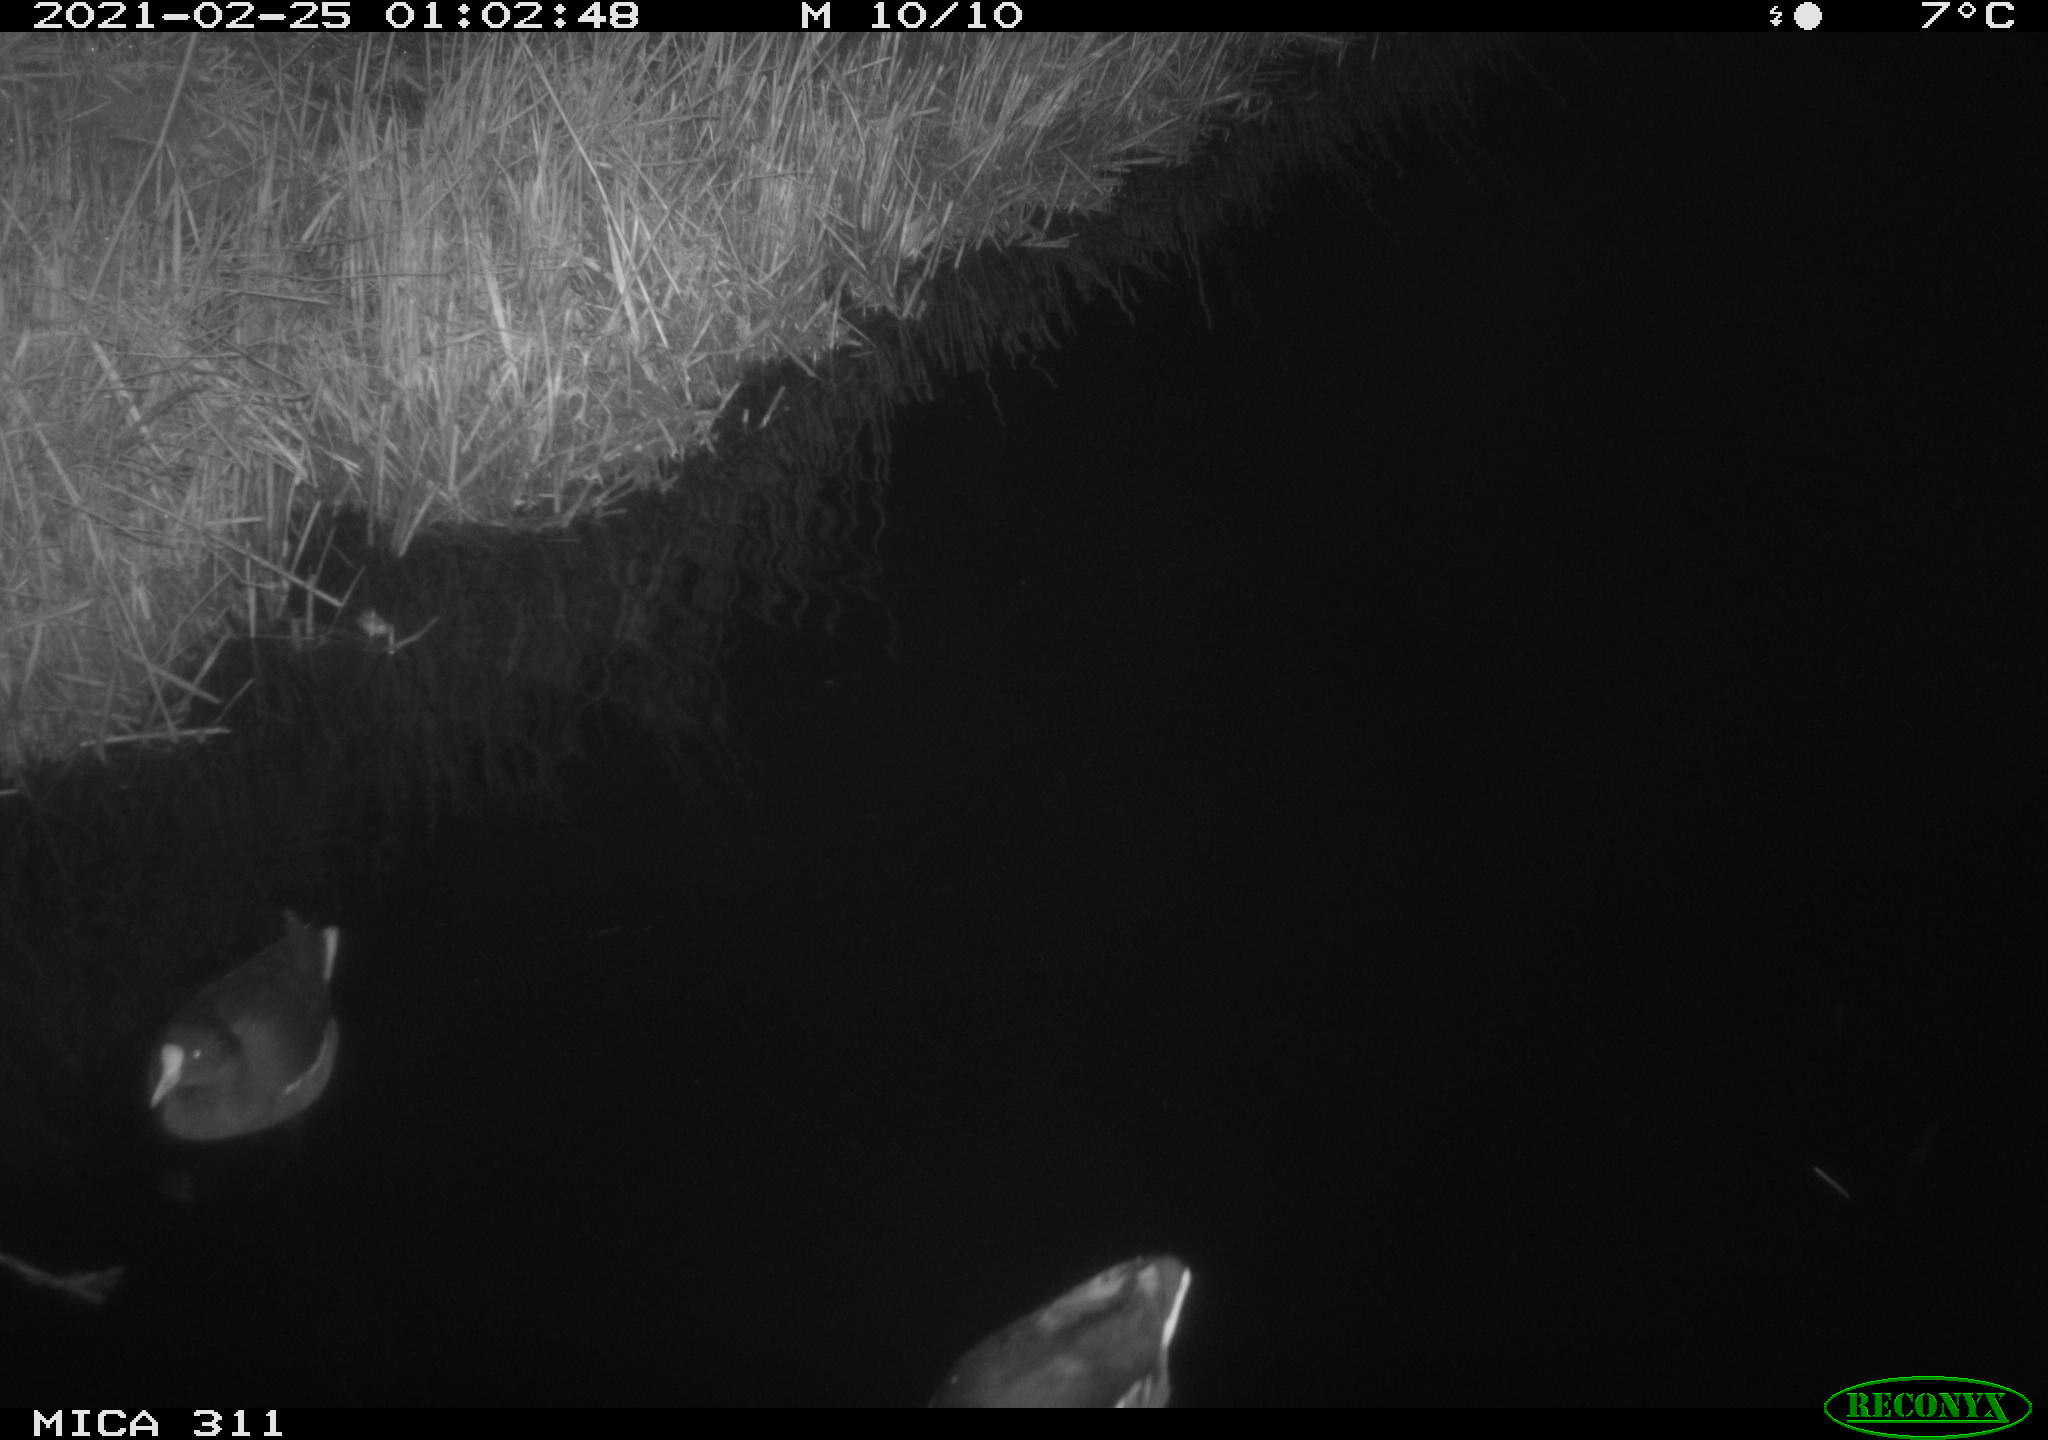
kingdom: Animalia
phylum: Chordata
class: Aves
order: Gruiformes
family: Rallidae
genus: Gallinula
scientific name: Gallinula chloropus
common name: Common moorhen
